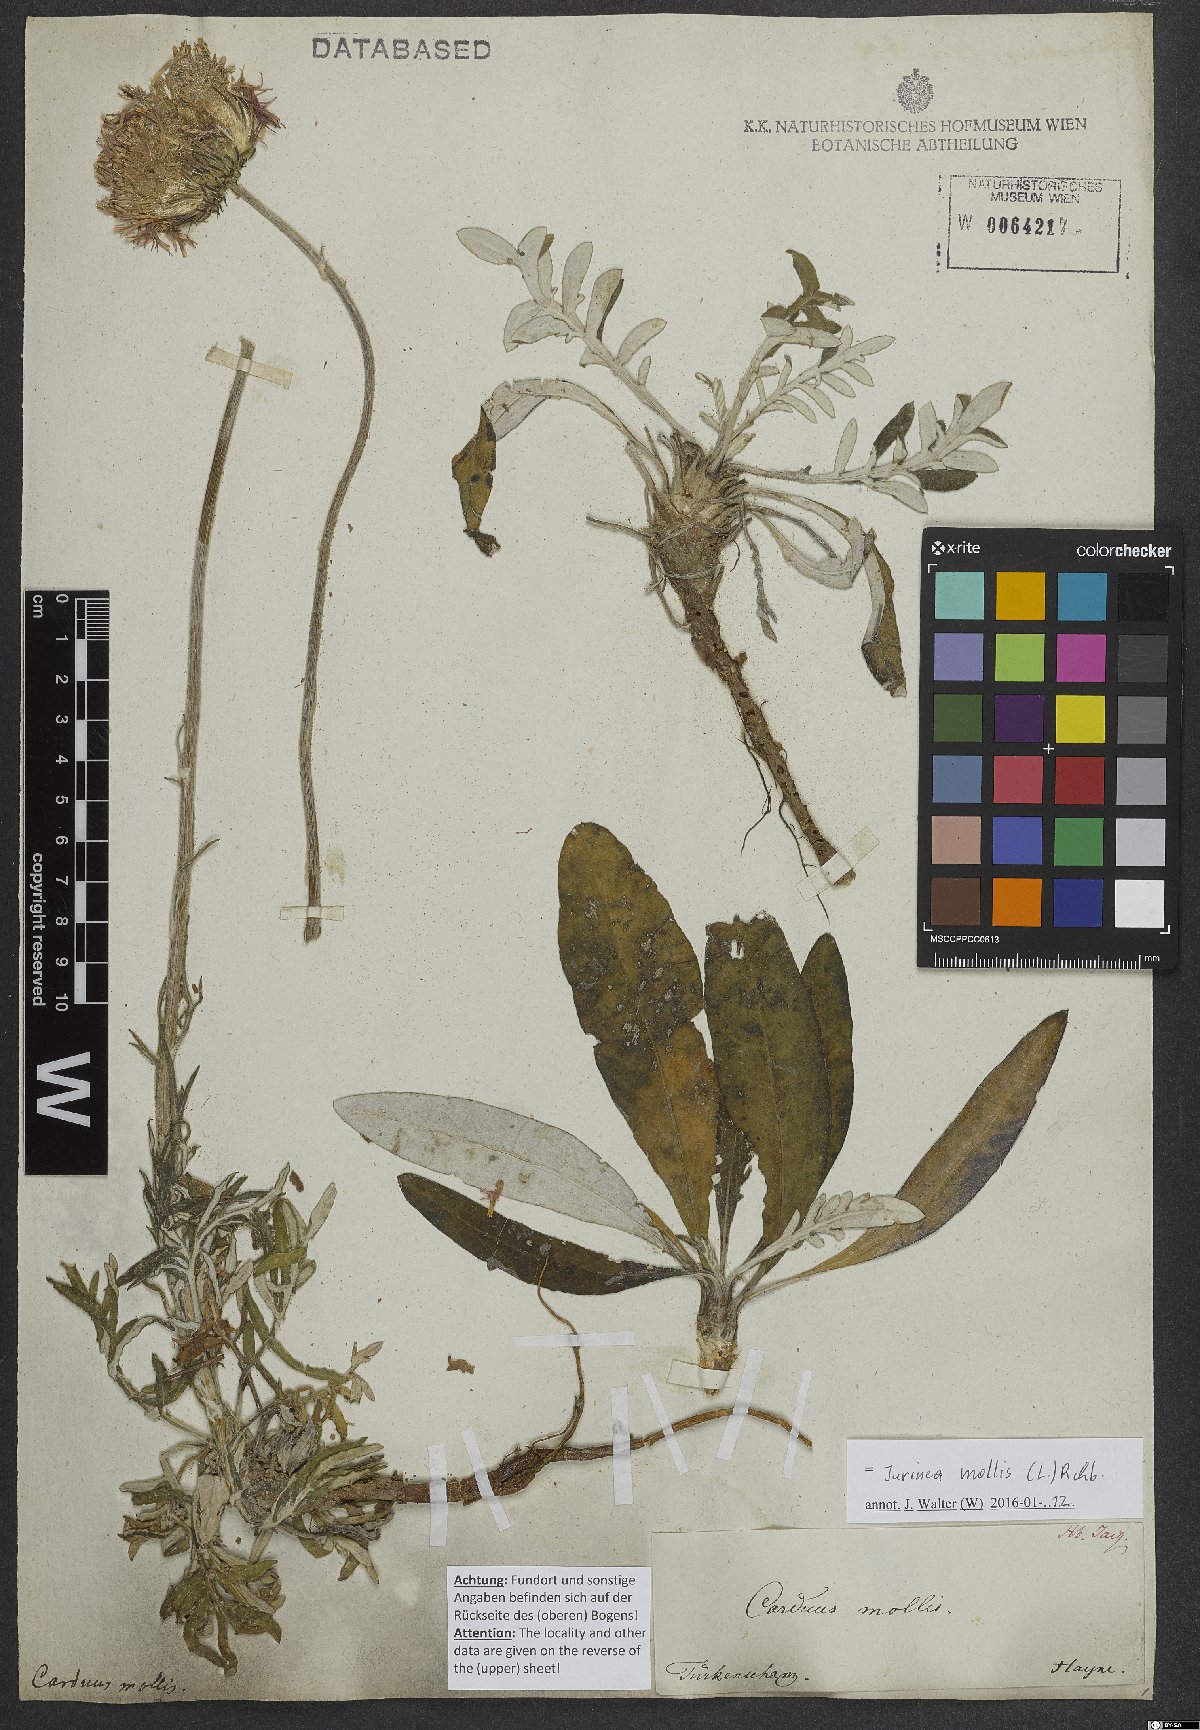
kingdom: Plantae
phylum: Tracheophyta
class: Magnoliopsida
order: Asterales
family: Asteraceae
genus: Jurinea
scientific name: Jurinea mollis
